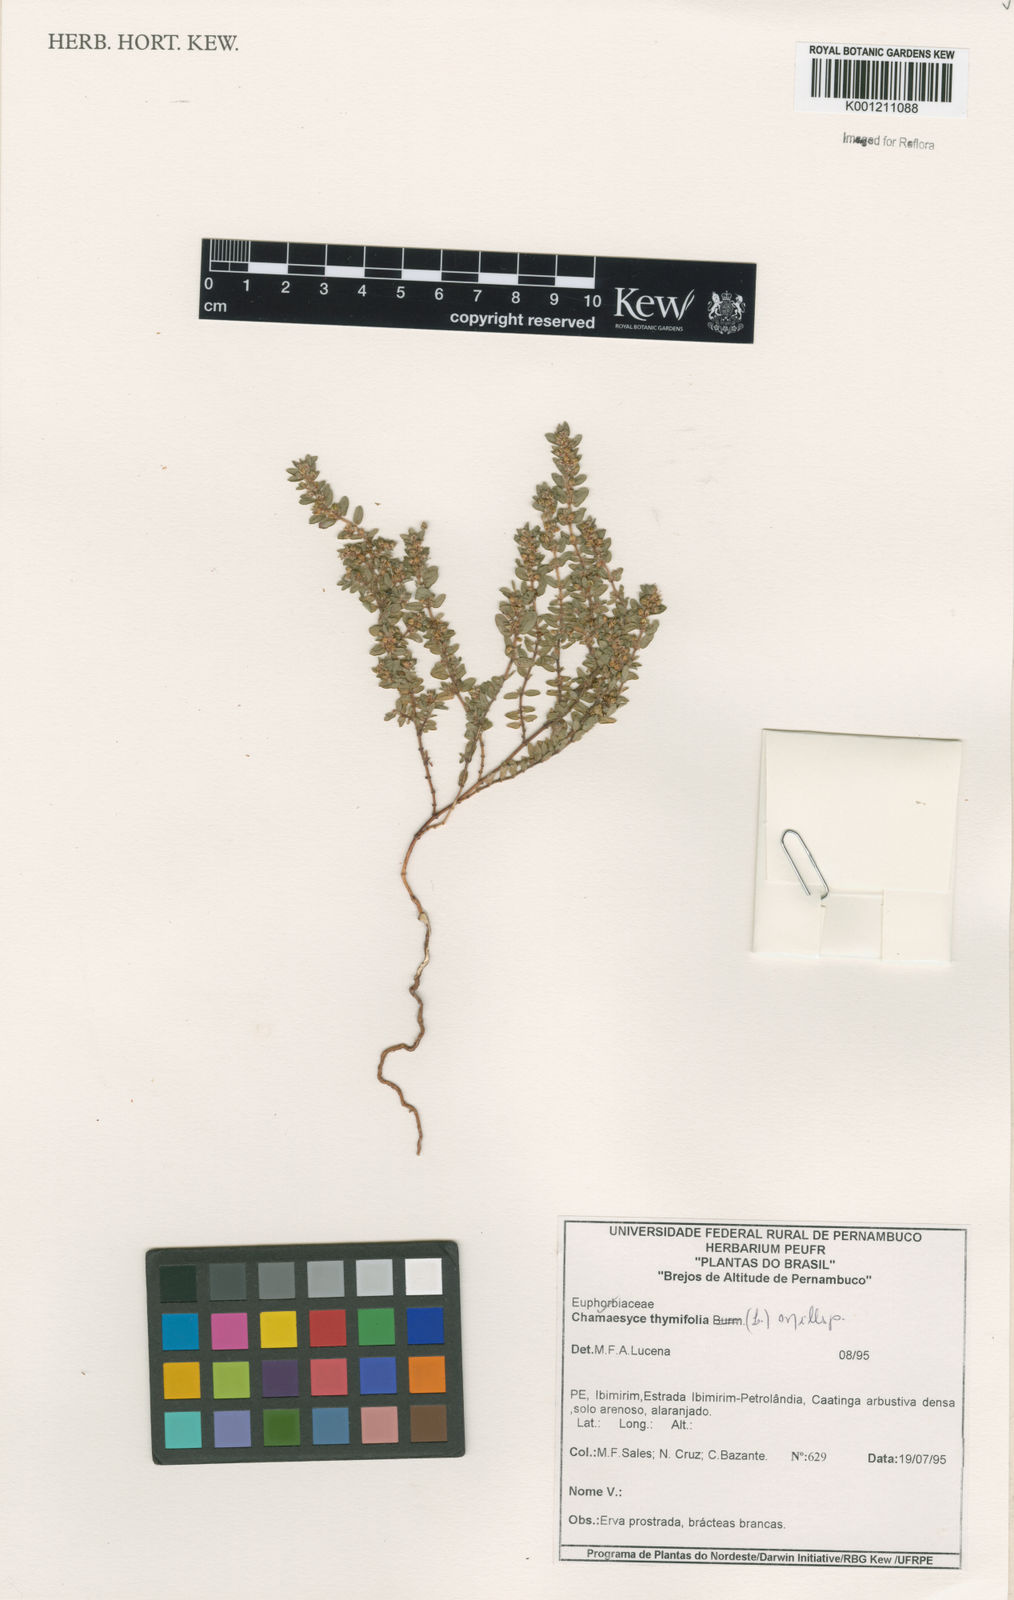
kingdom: Plantae
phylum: Tracheophyta
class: Magnoliopsida
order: Malpighiales
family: Euphorbiaceae
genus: Euphorbia
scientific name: Euphorbia thymifolia
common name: Gulf sandmat
